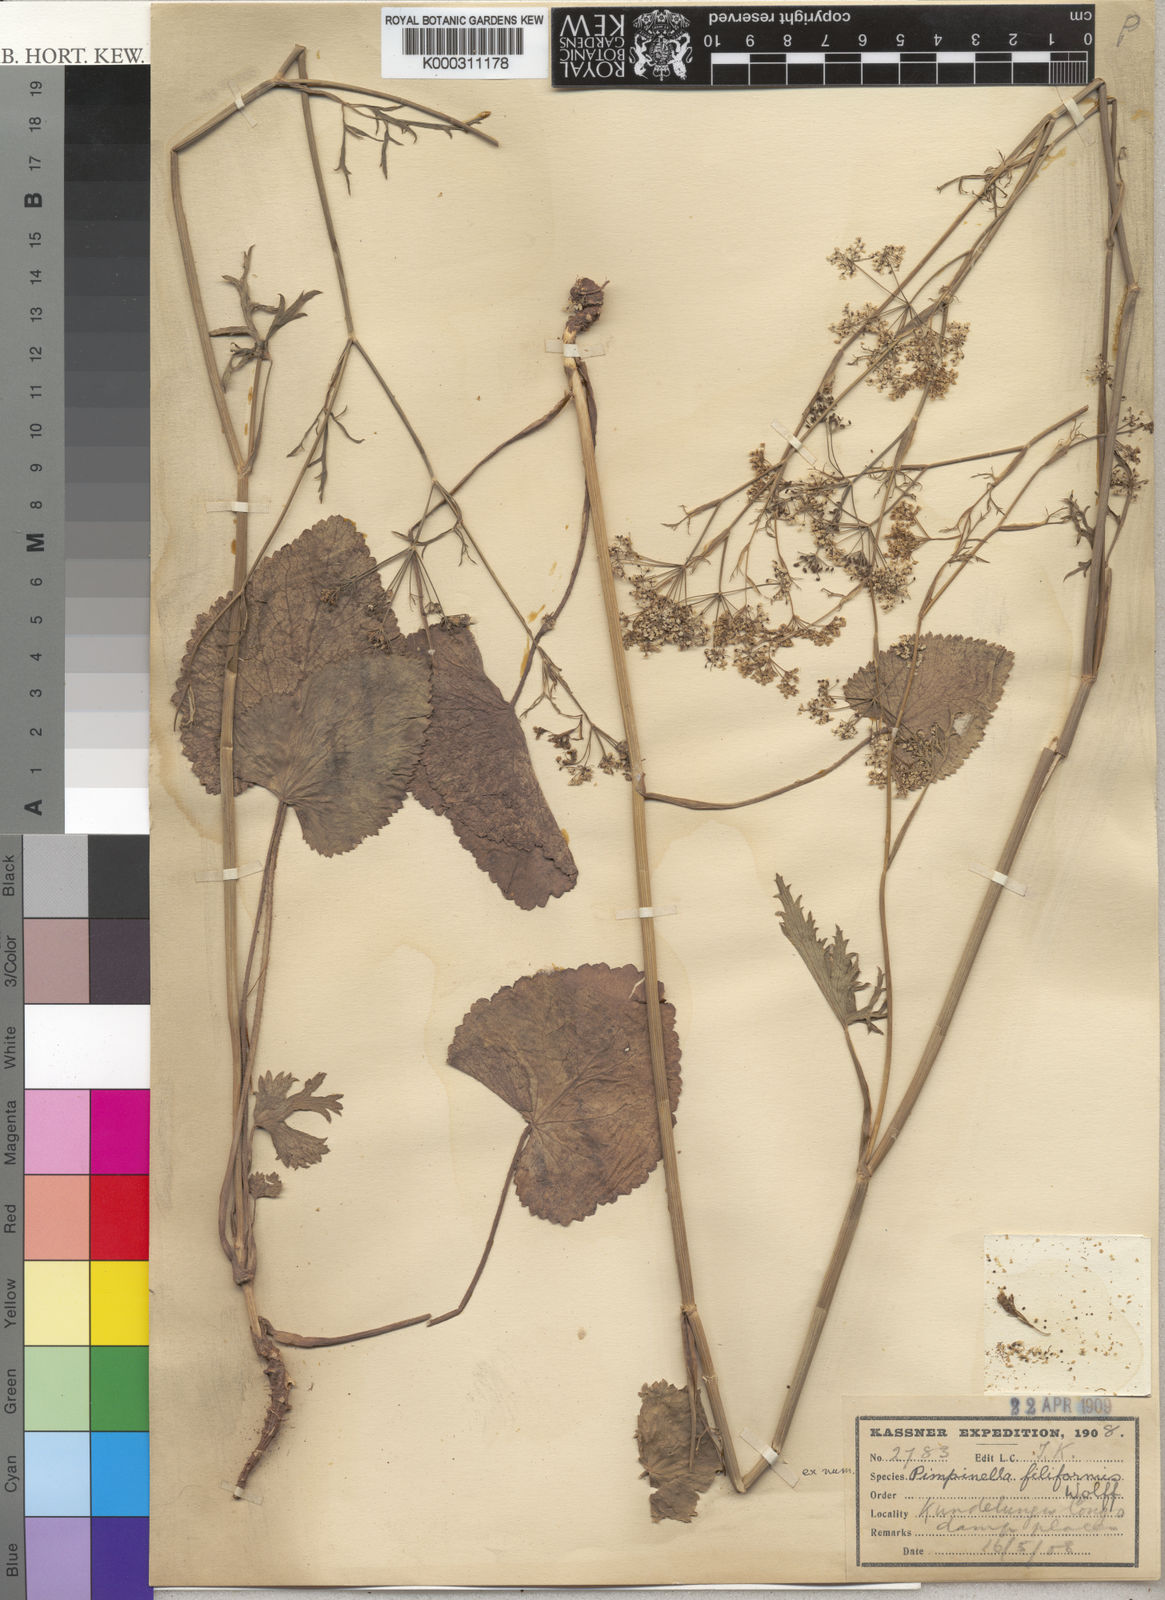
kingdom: Plantae
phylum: Tracheophyta
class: Magnoliopsida
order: Apiales
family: Apiaceae
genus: Pimpinella
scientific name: Pimpinella filiformis
